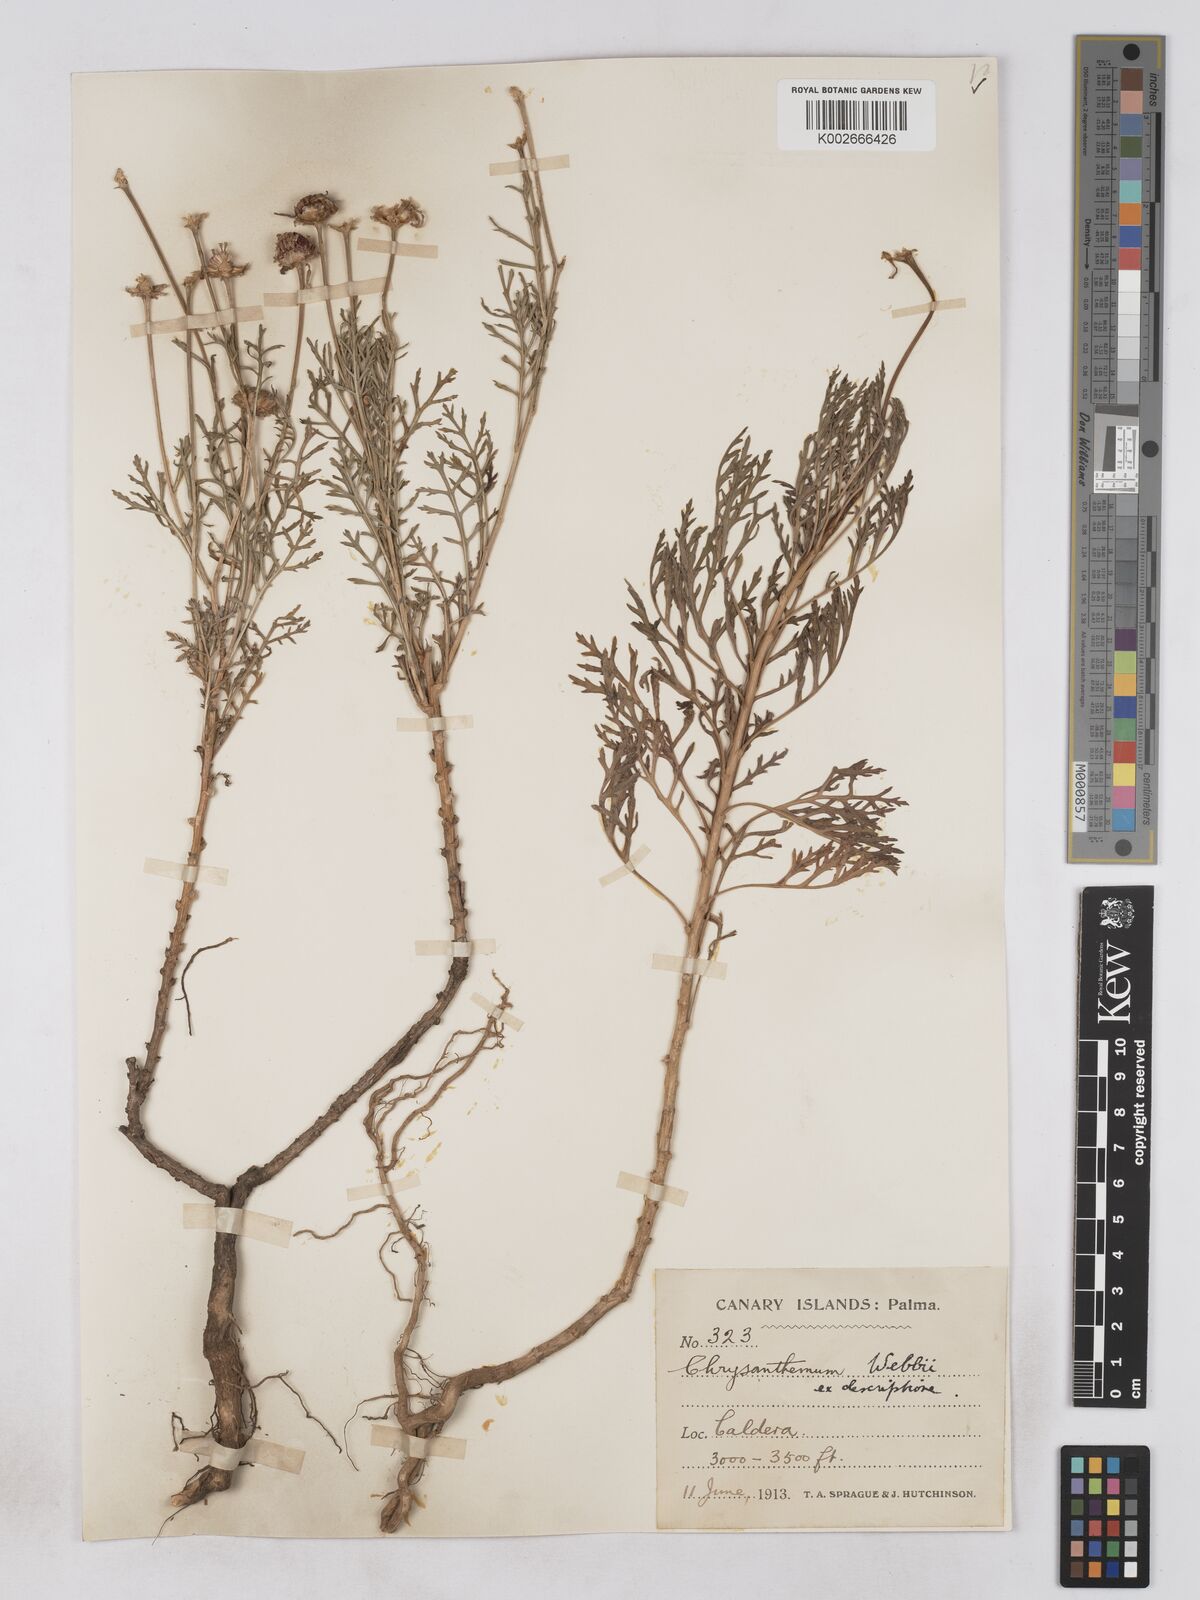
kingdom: Plantae
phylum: Tracheophyta
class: Magnoliopsida
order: Asterales
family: Asteraceae
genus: Argyranthemum
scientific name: Argyranthemum haouarytheum
